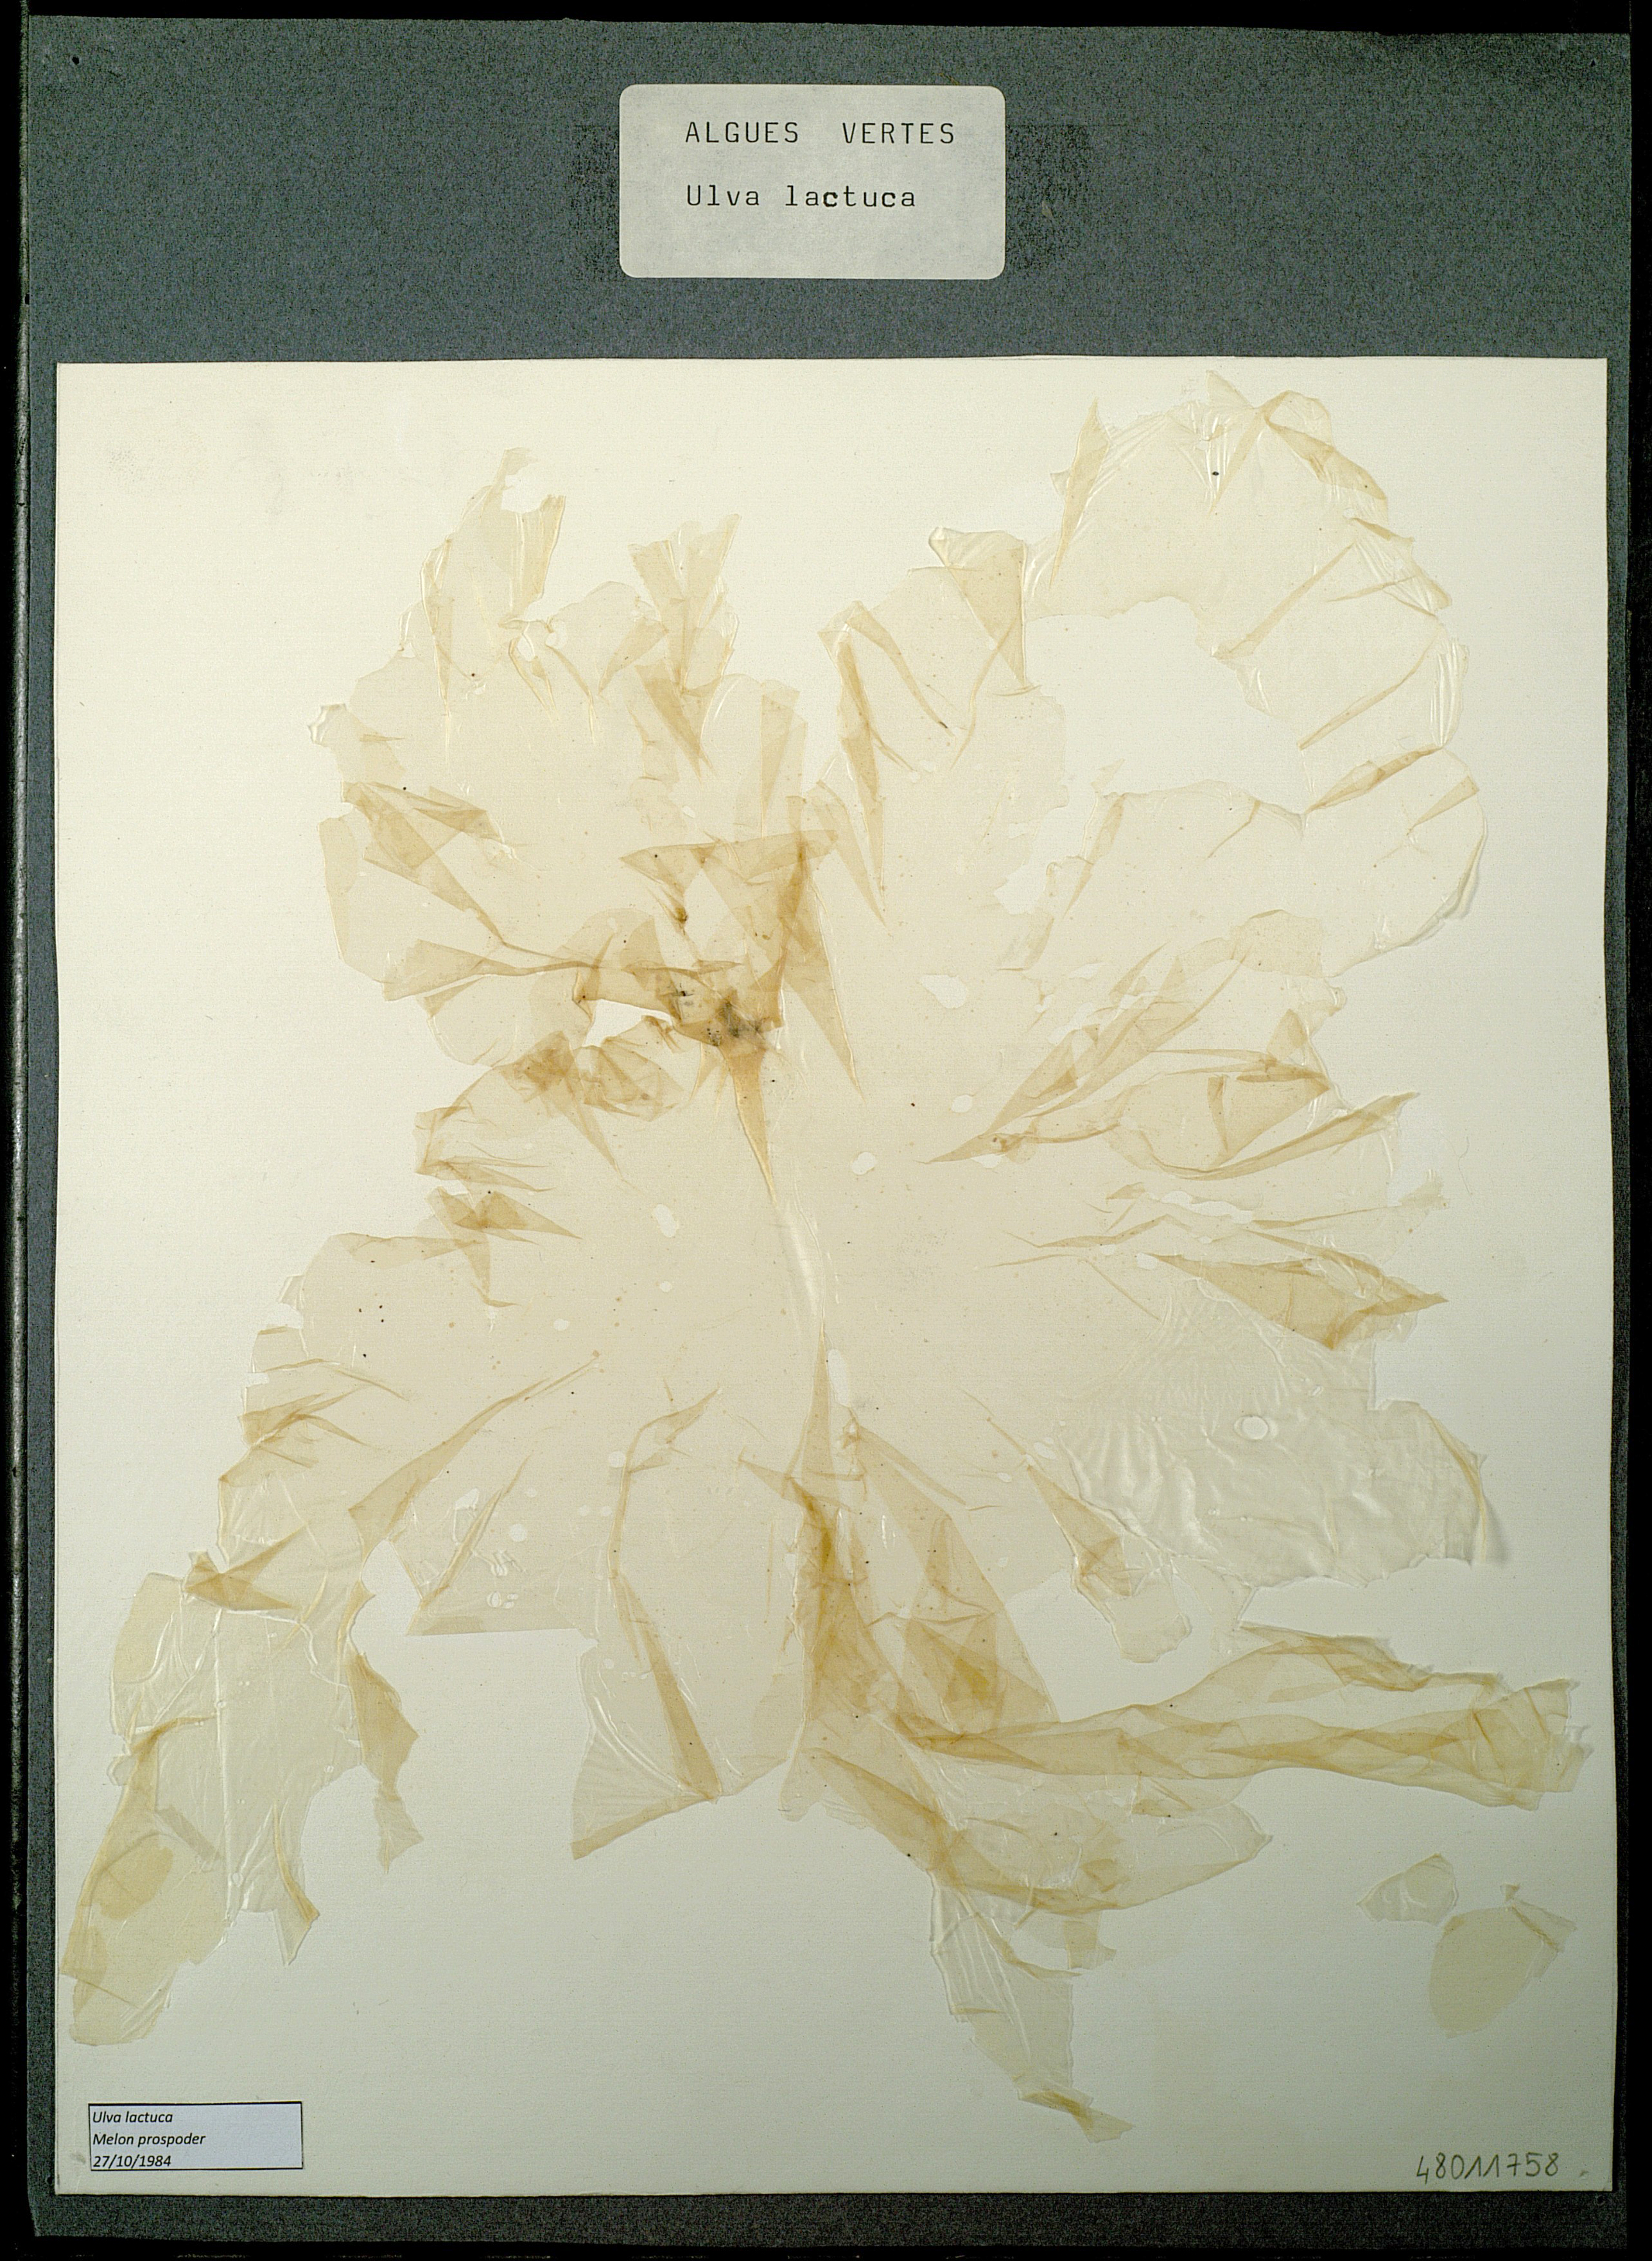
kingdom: Plantae
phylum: Chlorophyta
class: Ulvophyceae
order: Ulvales
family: Ulvaceae
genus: Ulva
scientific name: Ulva lactuca
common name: Sea lettuce
